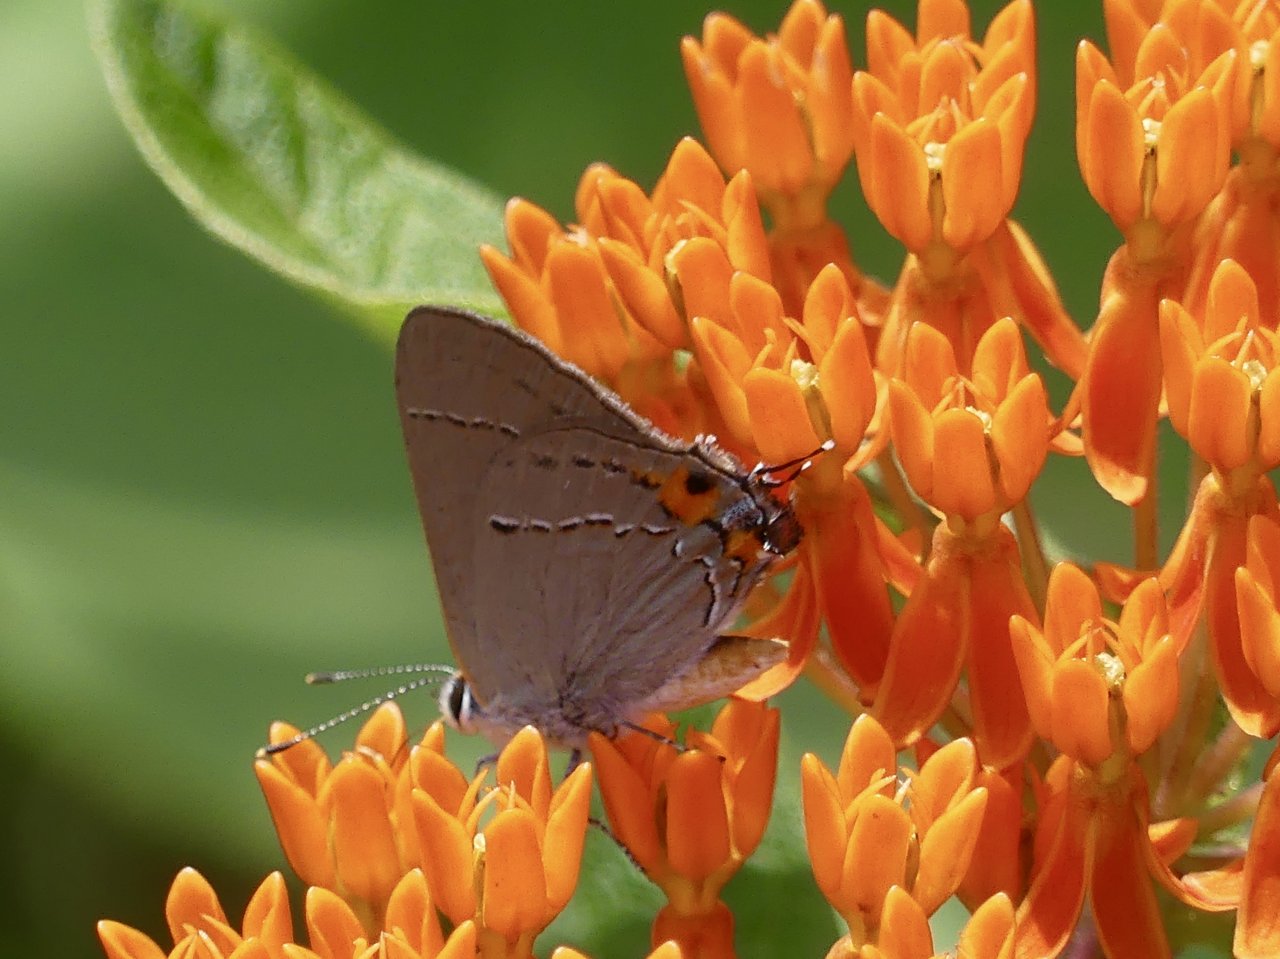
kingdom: Animalia
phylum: Arthropoda
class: Insecta
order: Lepidoptera
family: Lycaenidae
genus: Strymon
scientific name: Strymon melinus
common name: Gray Hairstreak
